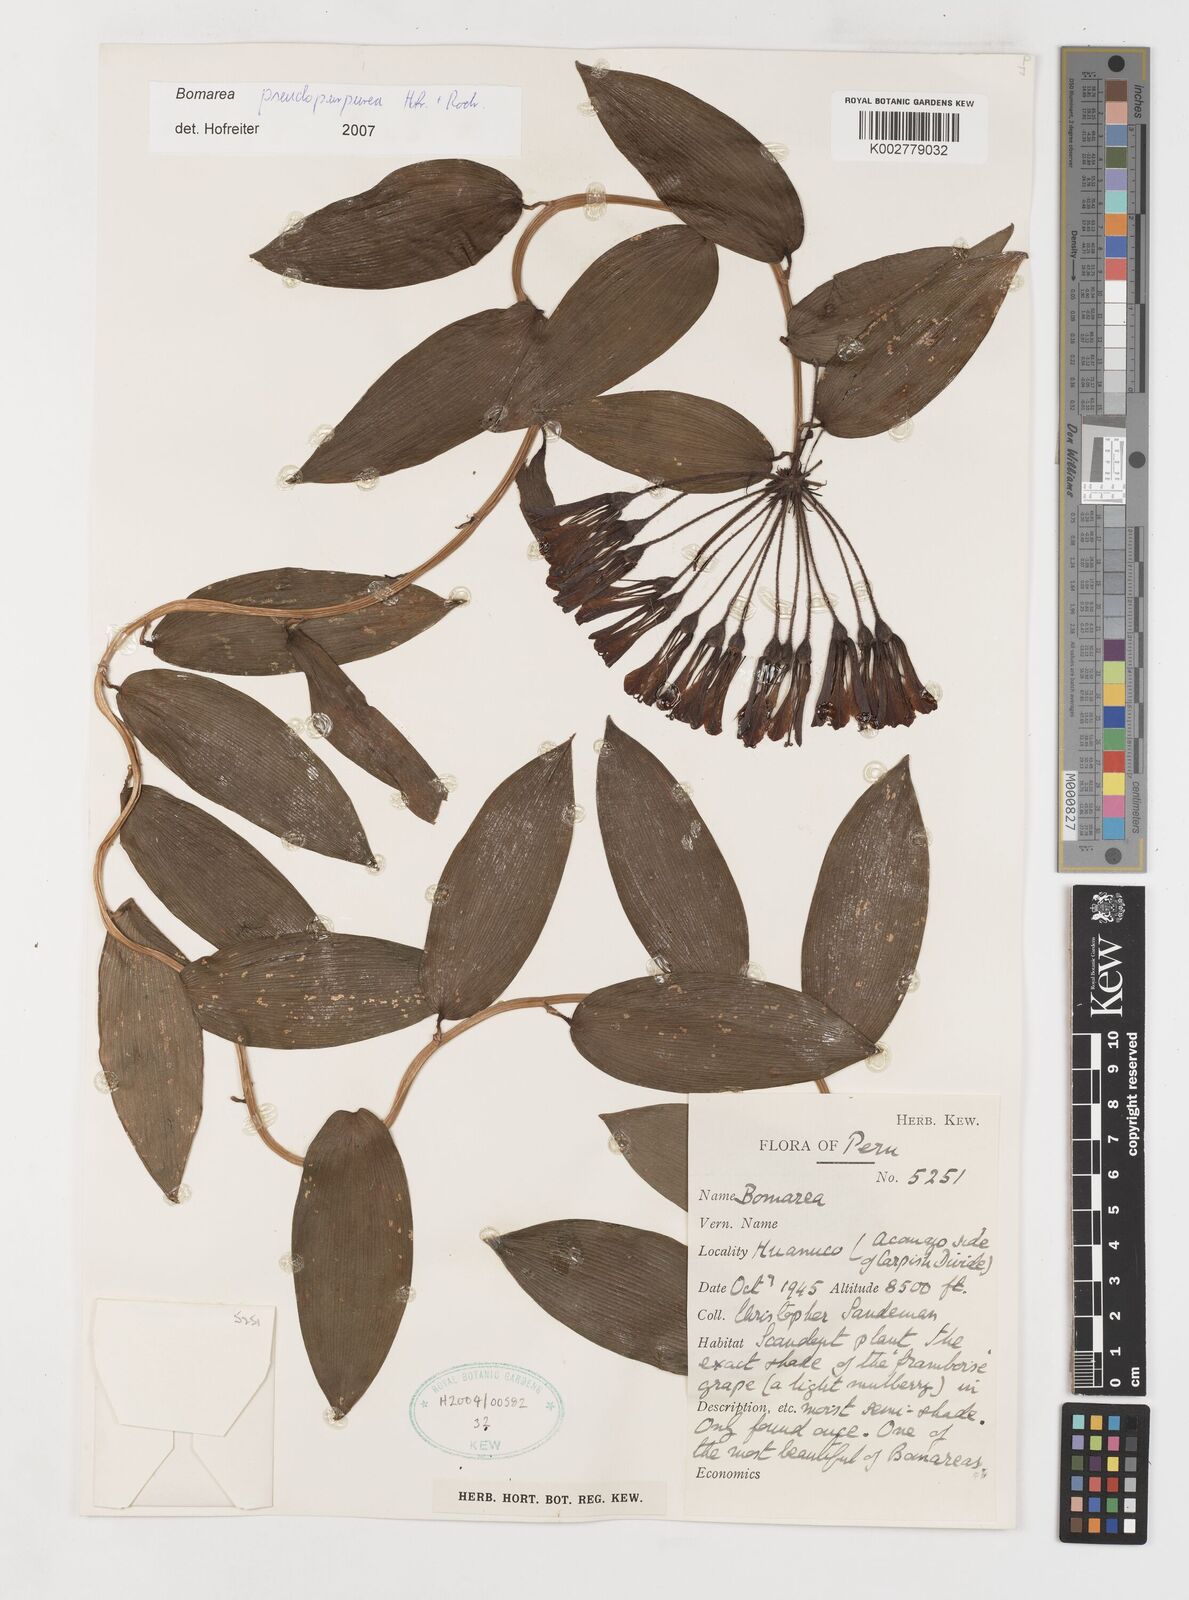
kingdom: Plantae
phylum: Tracheophyta
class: Liliopsida
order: Liliales
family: Alstroemeriaceae
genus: Bomarea
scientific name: Bomarea pseudopurpurea
